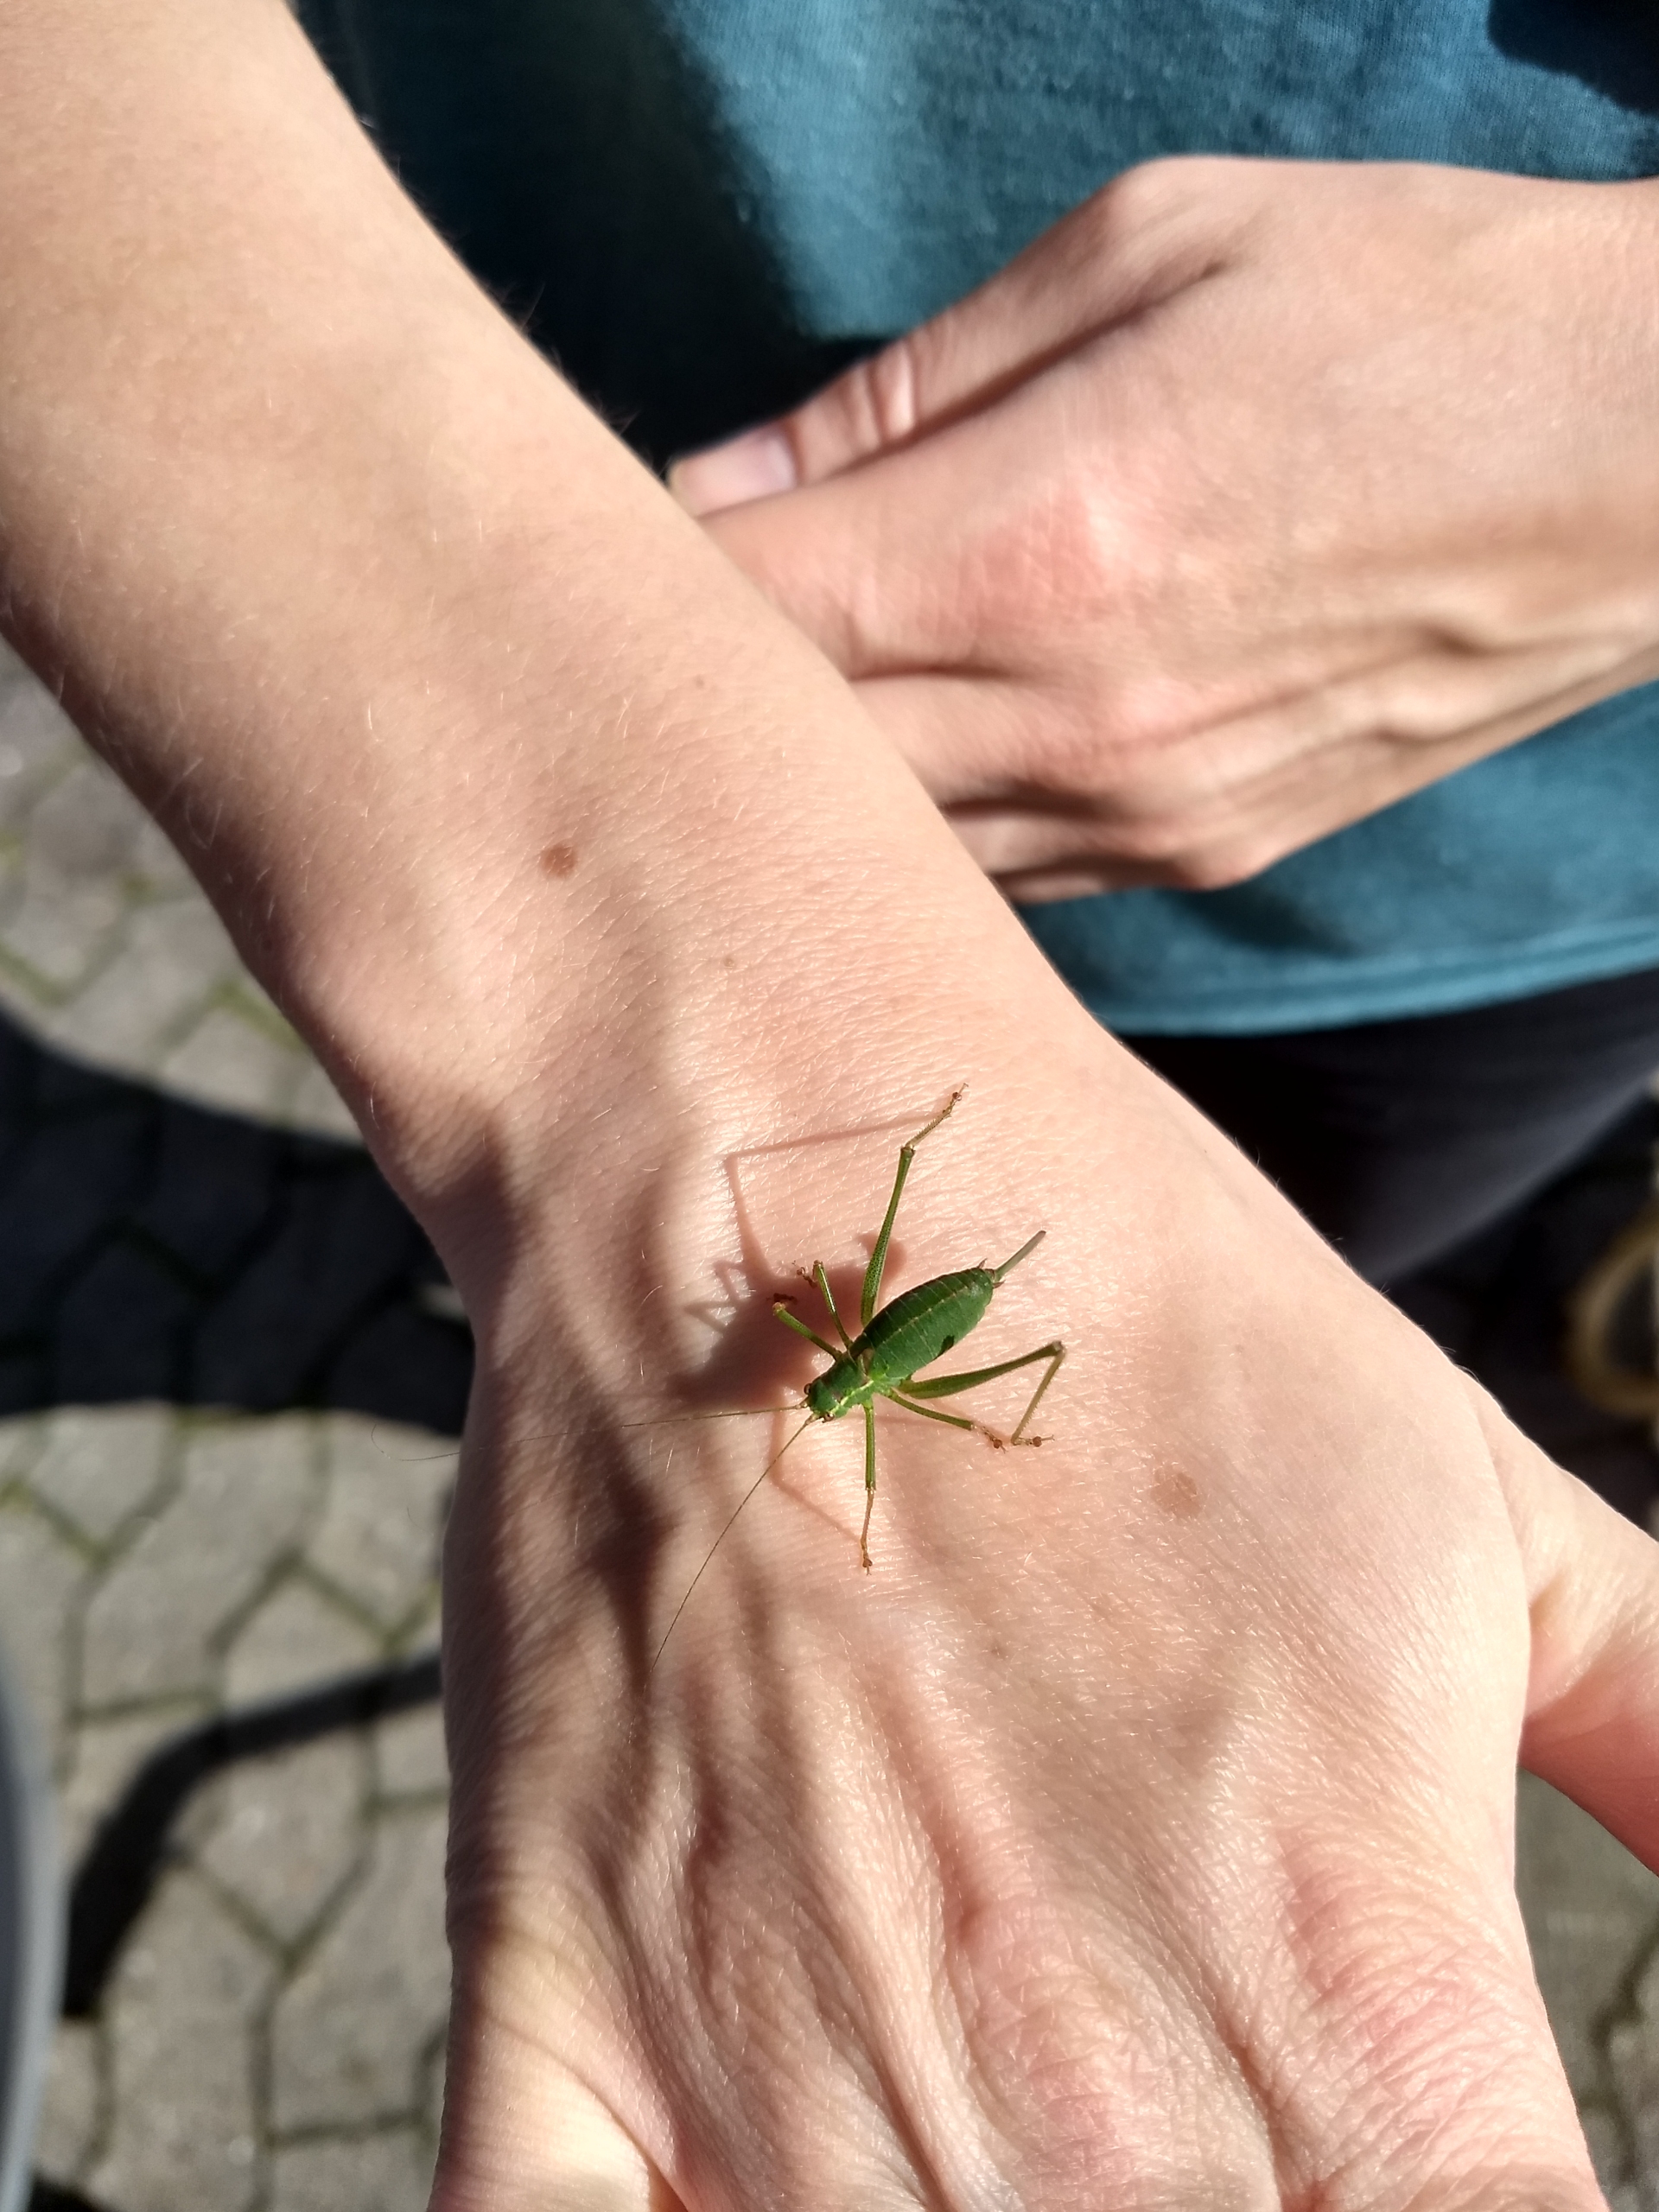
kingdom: Animalia
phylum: Arthropoda
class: Insecta
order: Orthoptera
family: Tettigoniidae
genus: Leptophyes
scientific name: Leptophyes punctatissima
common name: Krumknivgræshoppe
